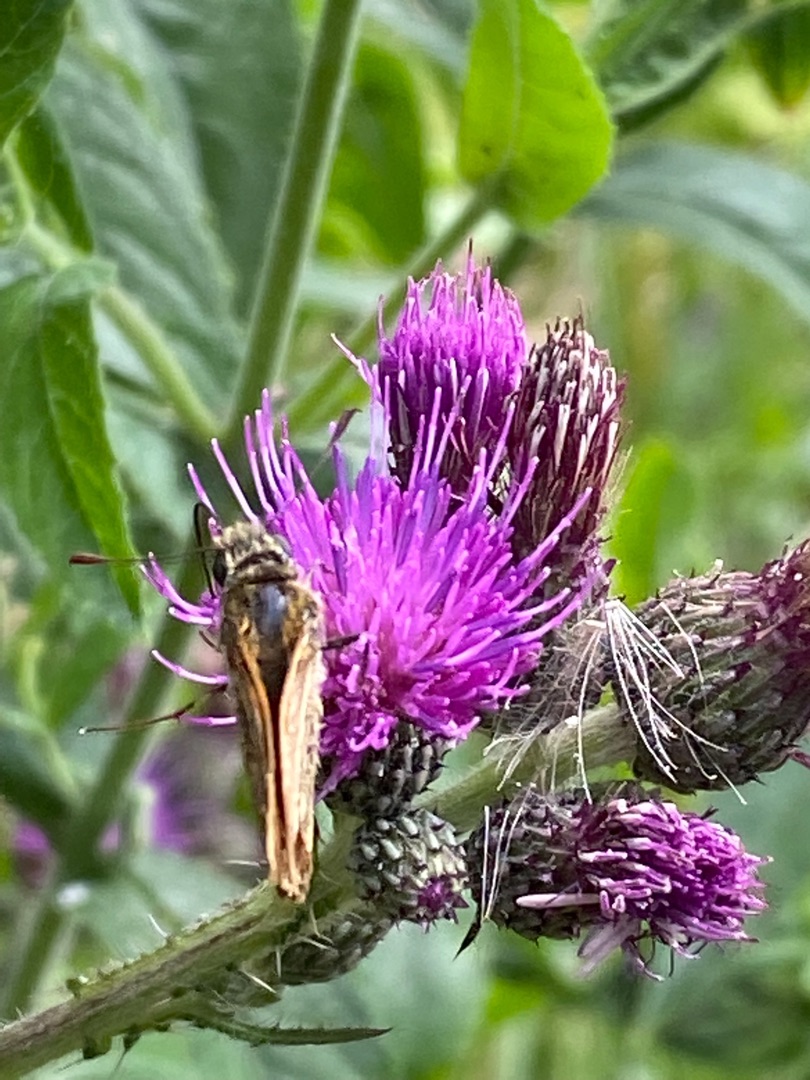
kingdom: Animalia
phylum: Arthropoda
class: Insecta
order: Lepidoptera
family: Hesperiidae
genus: Ochlodes
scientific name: Ochlodes venata
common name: Stor bredpande
